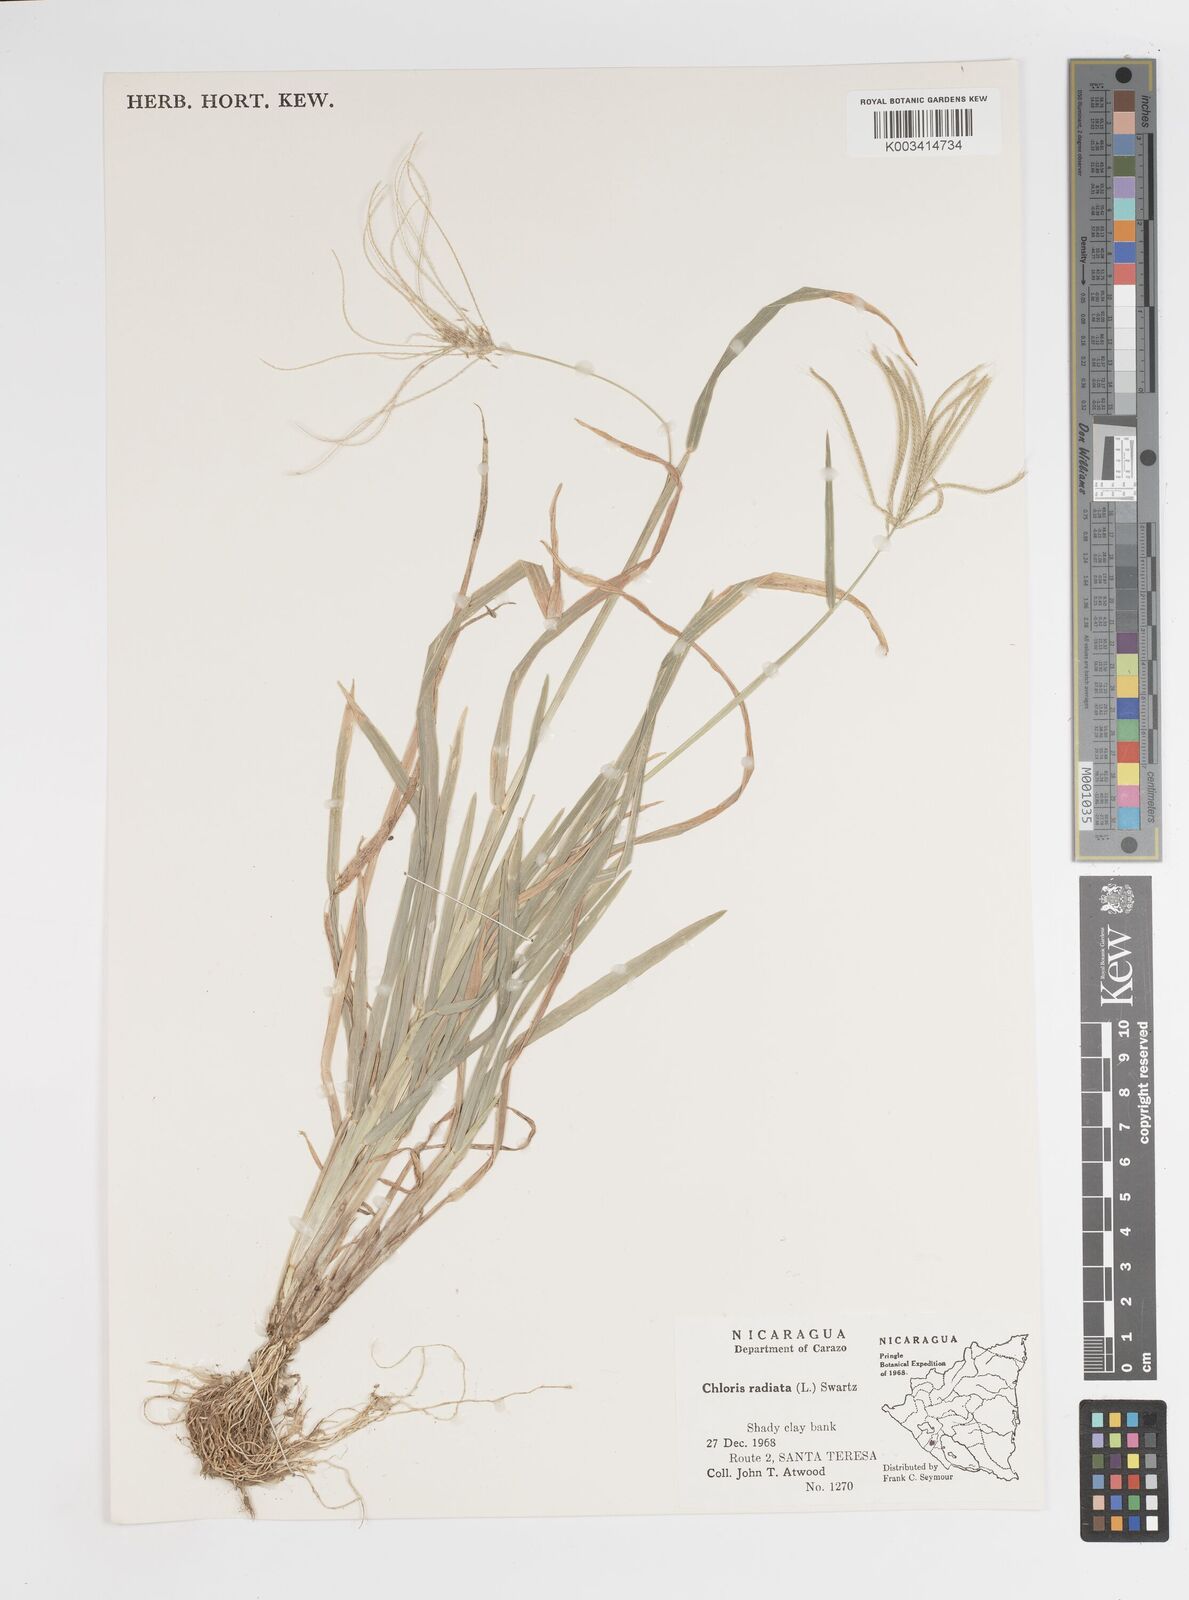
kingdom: Plantae
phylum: Tracheophyta
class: Liliopsida
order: Poales
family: Poaceae
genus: Chloris
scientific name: Chloris radiata
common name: Radiate fingergrass
